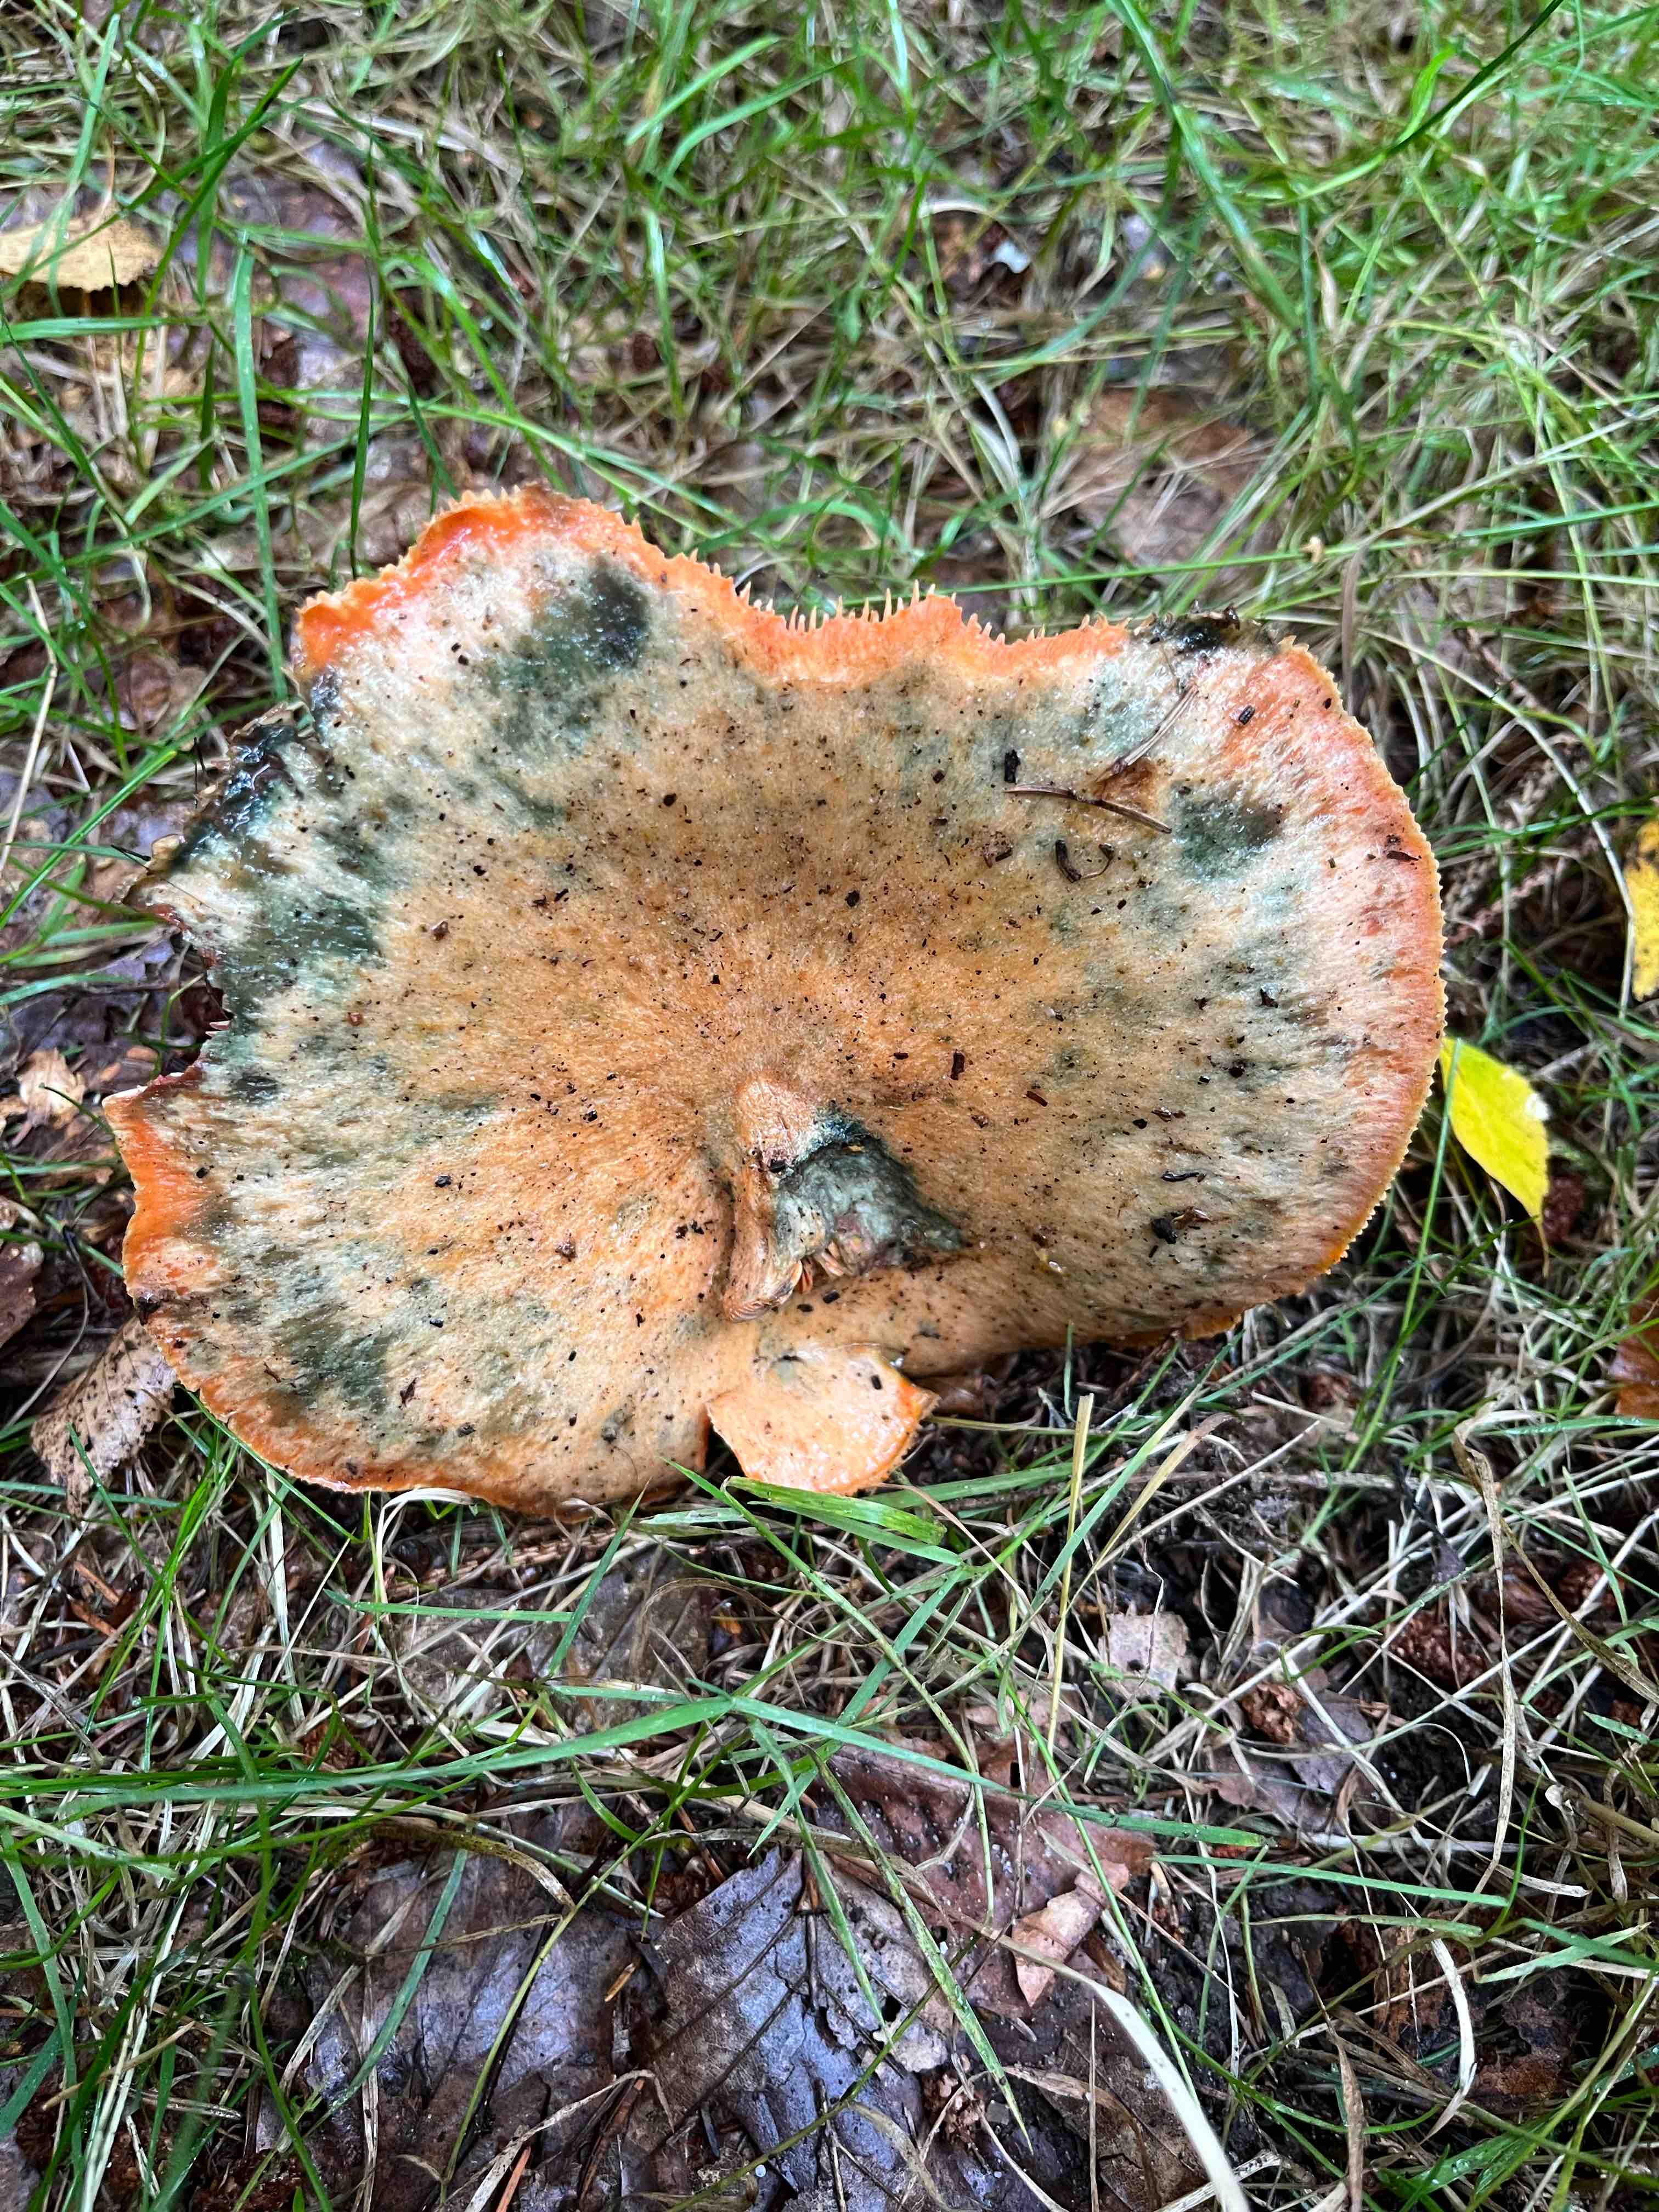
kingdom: Fungi
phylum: Basidiomycota
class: Agaricomycetes
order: Russulales
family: Russulaceae
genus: Lactarius
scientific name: Lactarius deterrimus
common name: gran-mælkehat
